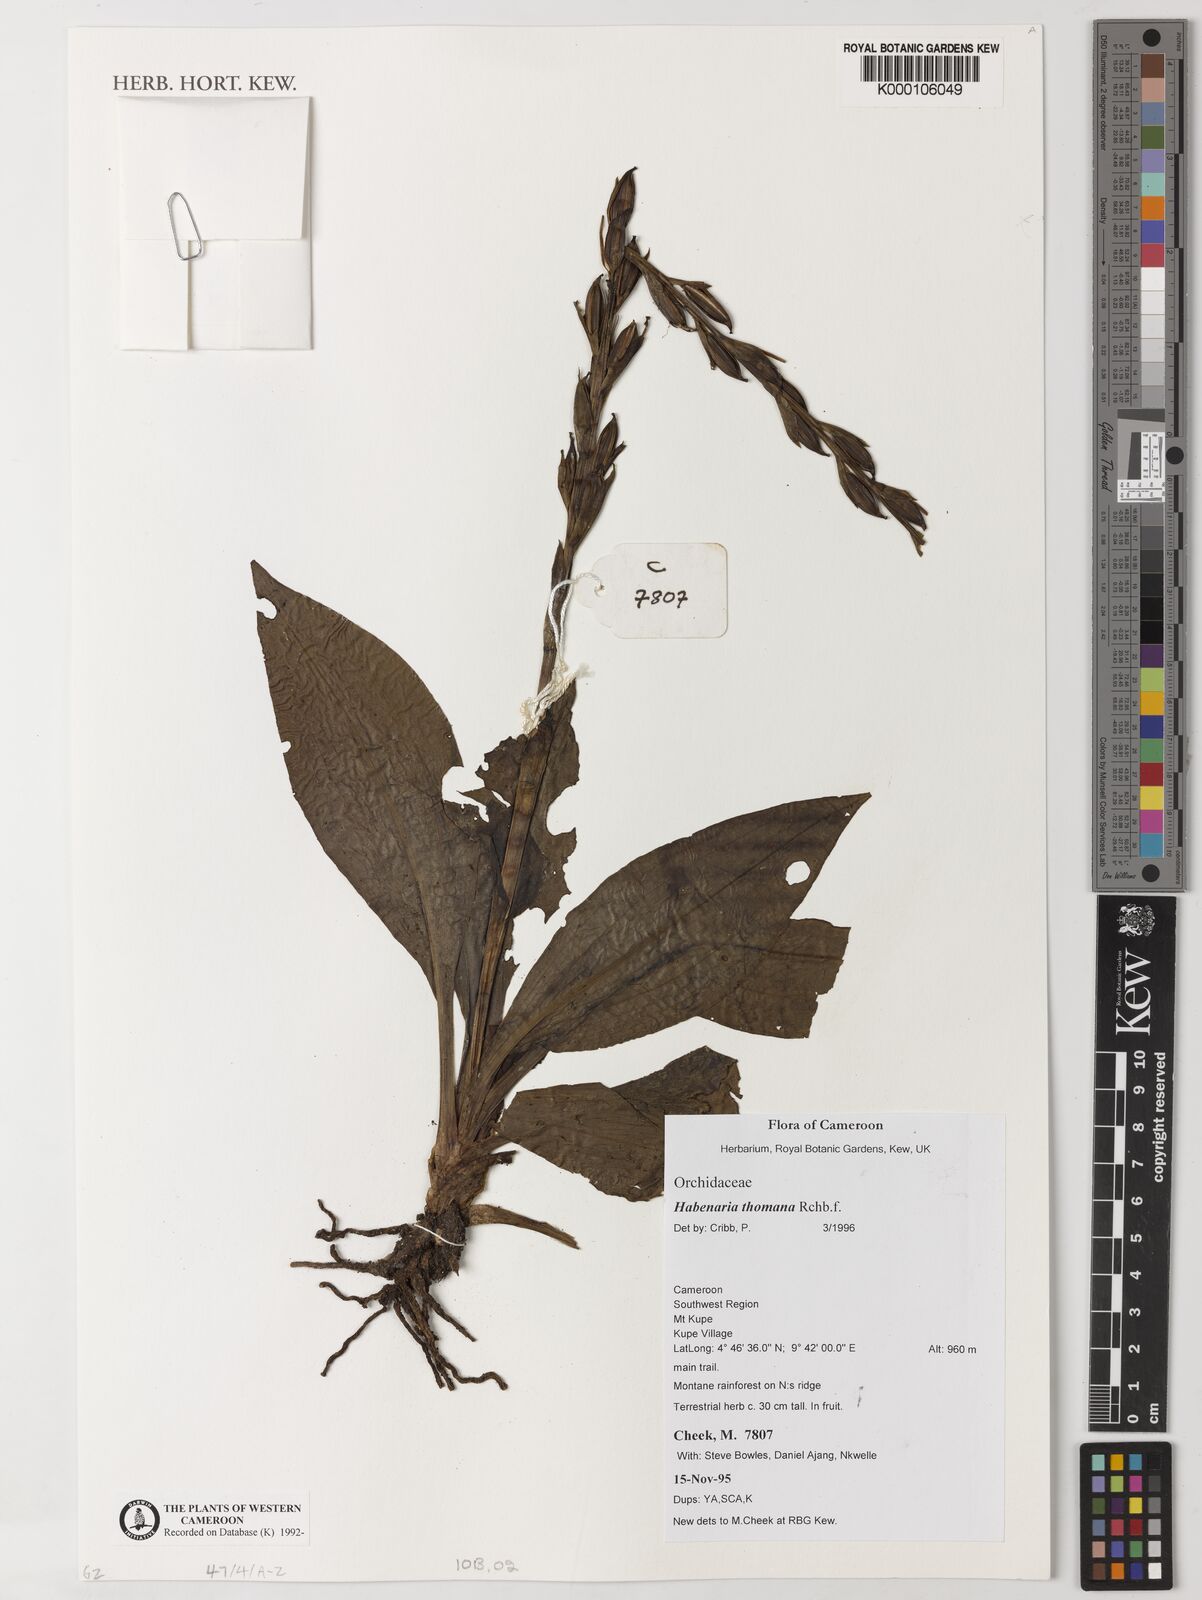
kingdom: Plantae
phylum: Tracheophyta
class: Liliopsida
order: Asparagales
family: Orchidaceae
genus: Habenaria
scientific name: Habenaria thomana
